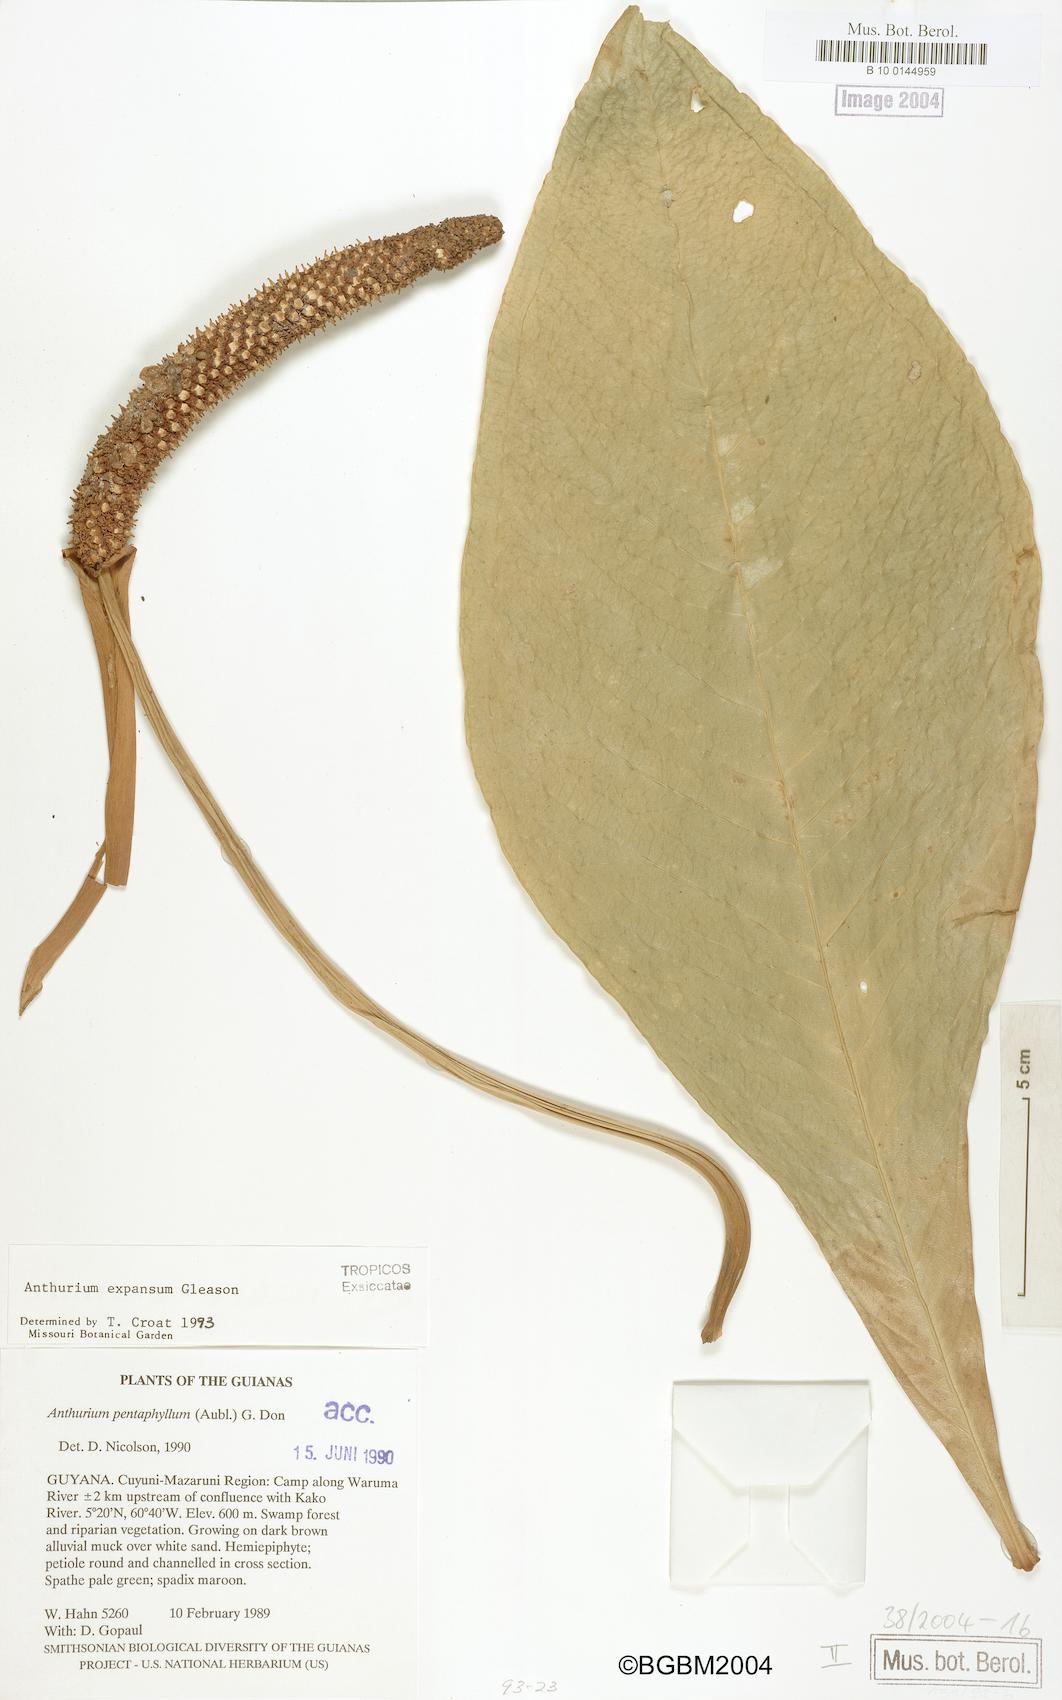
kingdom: Plantae
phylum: Tracheophyta
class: Liliopsida
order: Alismatales
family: Araceae
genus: Anthurium
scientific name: Anthurium pentaphyllum
